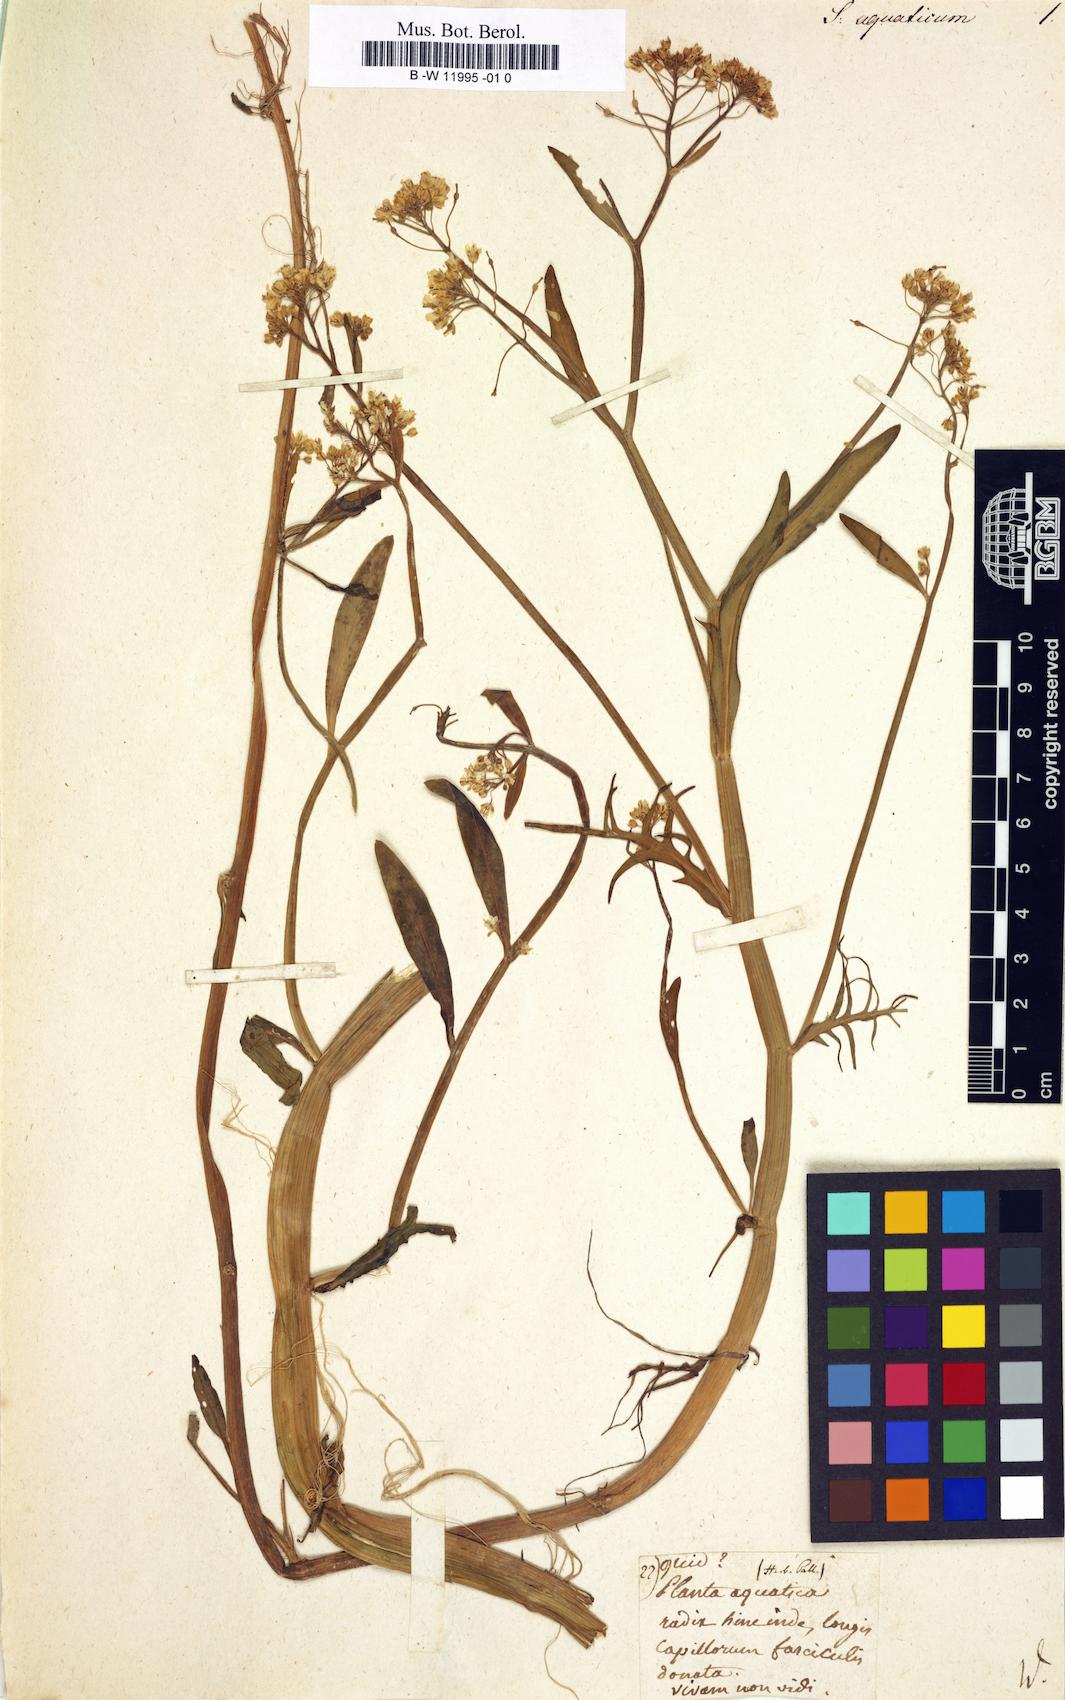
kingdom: Plantae
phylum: Tracheophyta
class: Magnoliopsida
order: Brassicales
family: Brassicaceae
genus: Rorippa
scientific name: Rorippa amphibia
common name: Great yellow-cress
